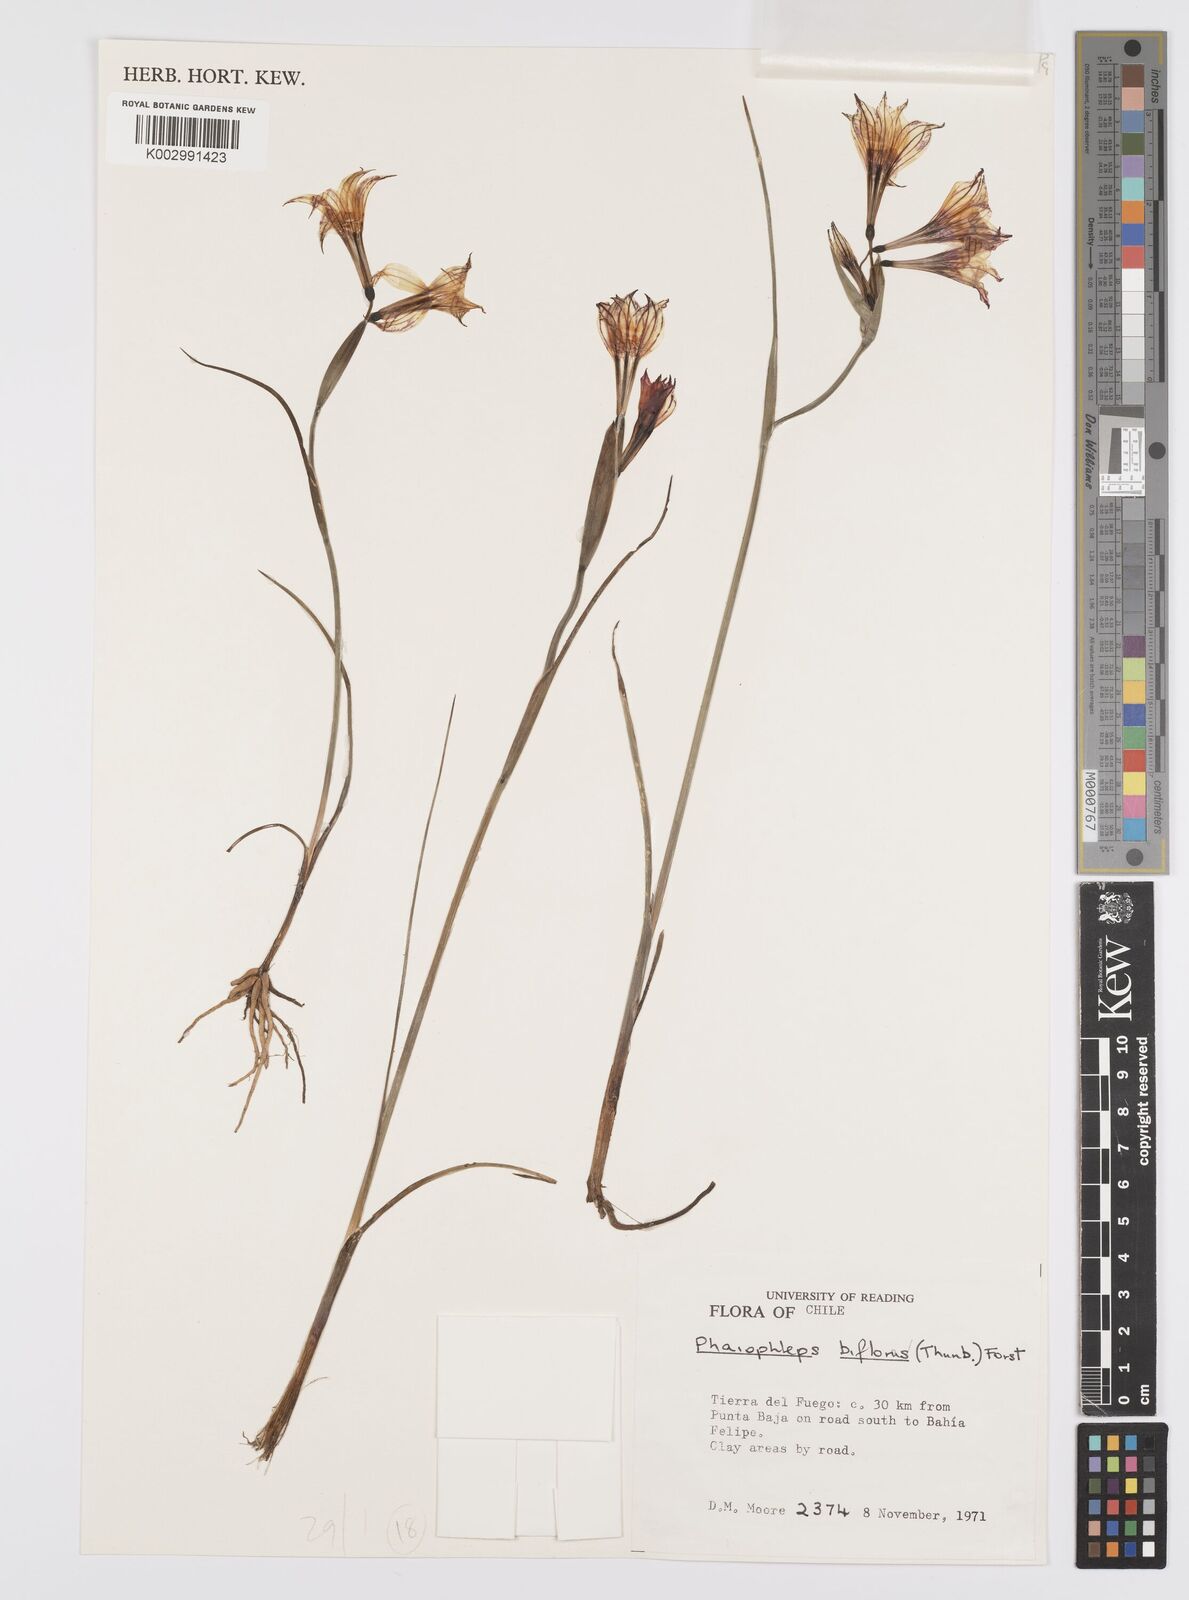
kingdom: Plantae
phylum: Tracheophyta
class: Liliopsida
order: Asparagales
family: Iridaceae
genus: Olsynium
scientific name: Olsynium biflorum
